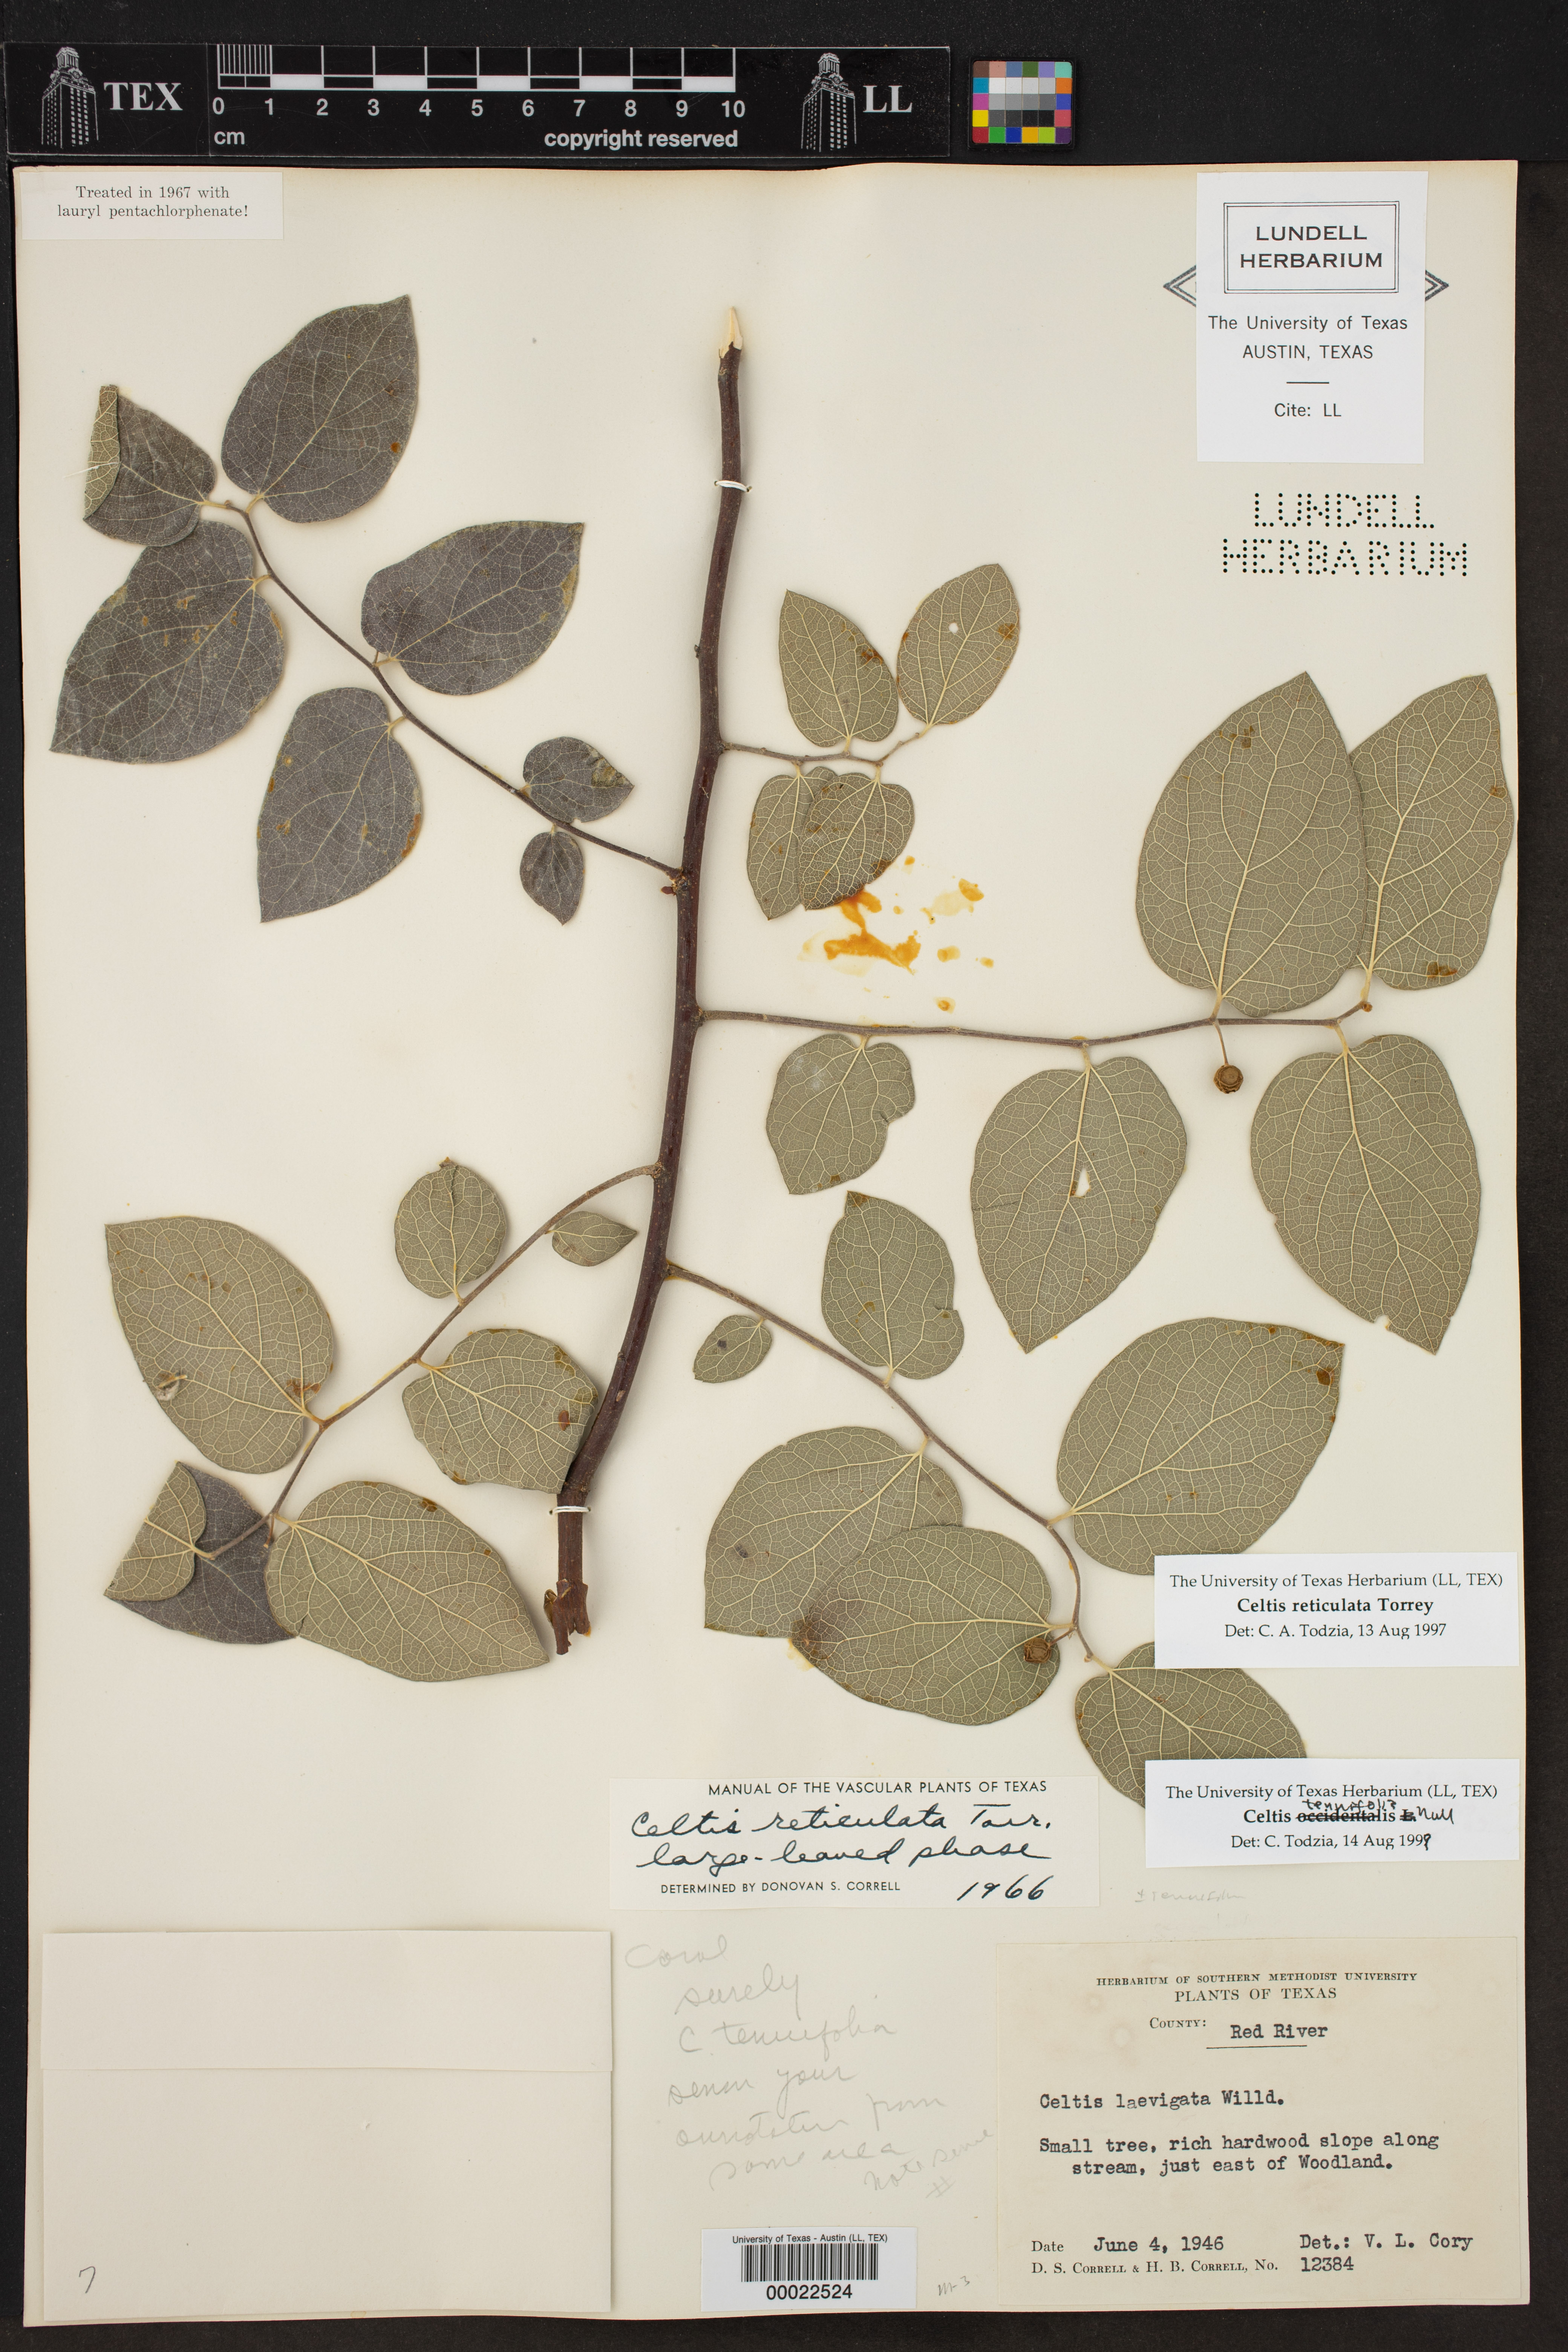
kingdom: Plantae
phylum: Tracheophyta
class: Magnoliopsida
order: Rosales
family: Cannabaceae
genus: Celtis
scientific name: Celtis reticulata
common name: Netleaf hackberry
